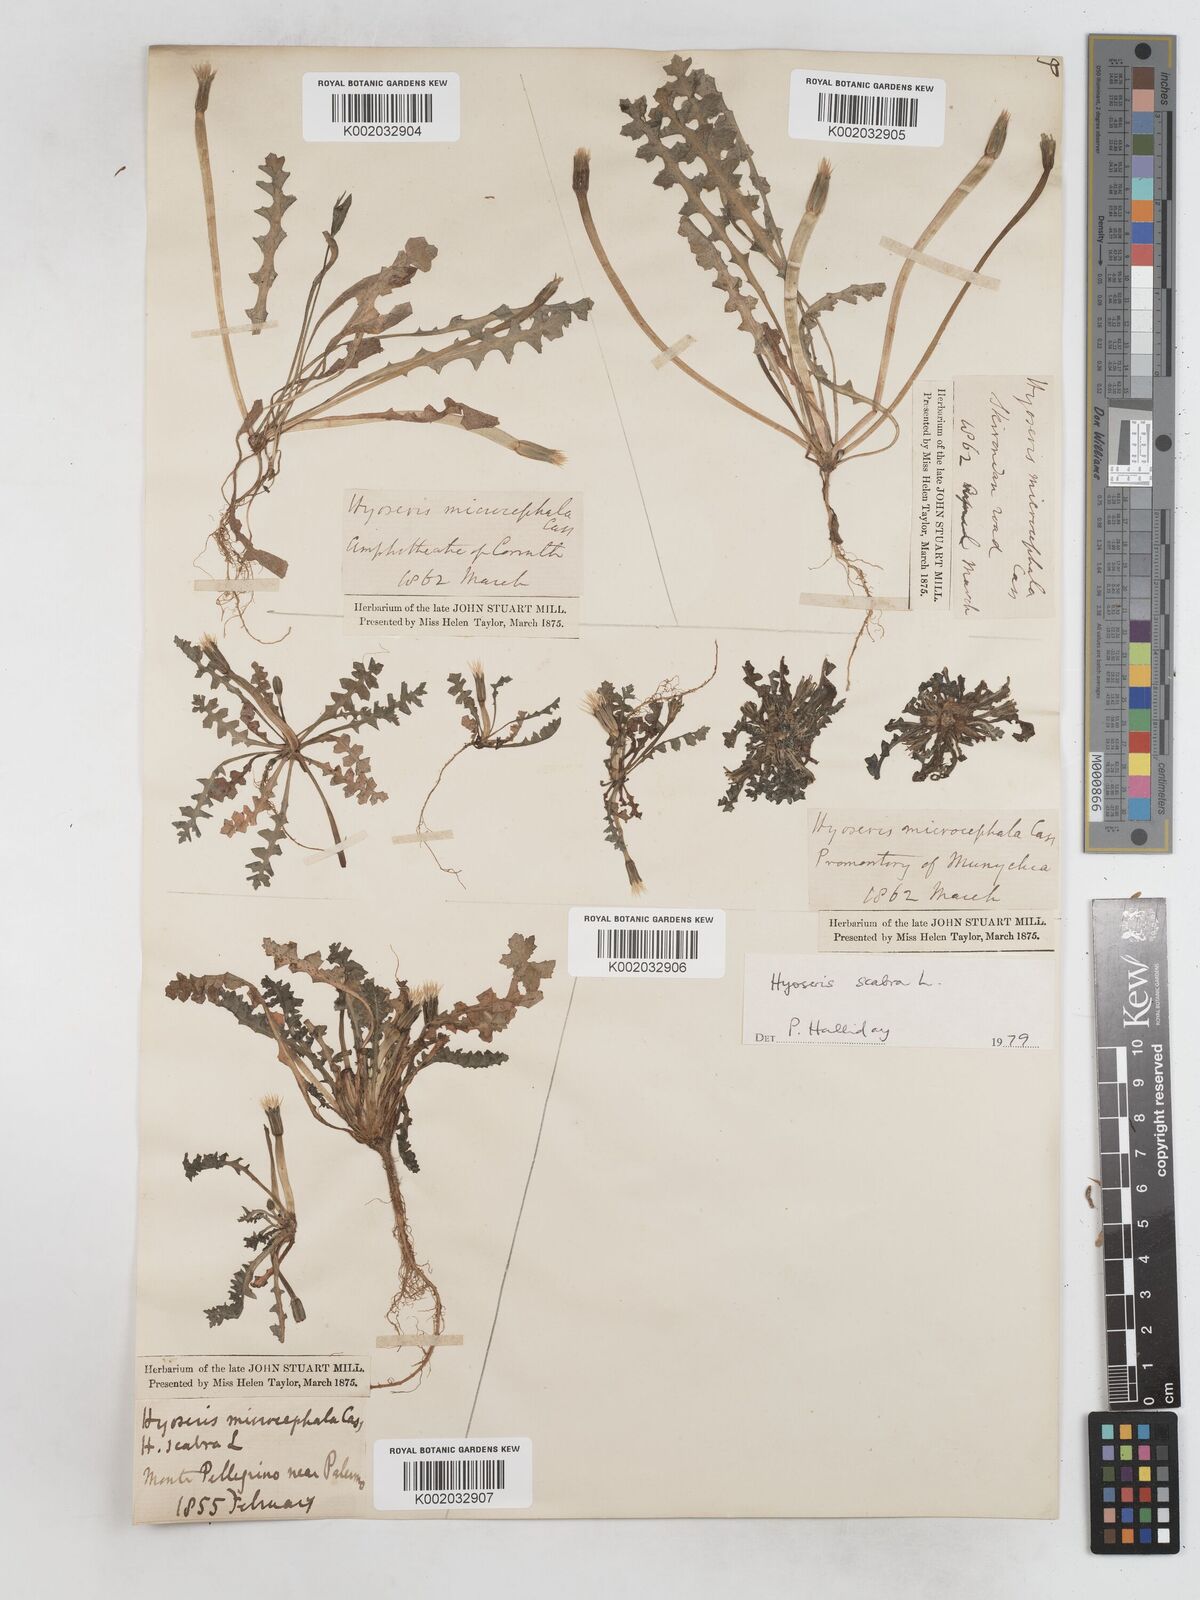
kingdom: Plantae
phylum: Tracheophyta
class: Magnoliopsida
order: Asterales
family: Asteraceae
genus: Hyoseris
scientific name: Hyoseris scabra
